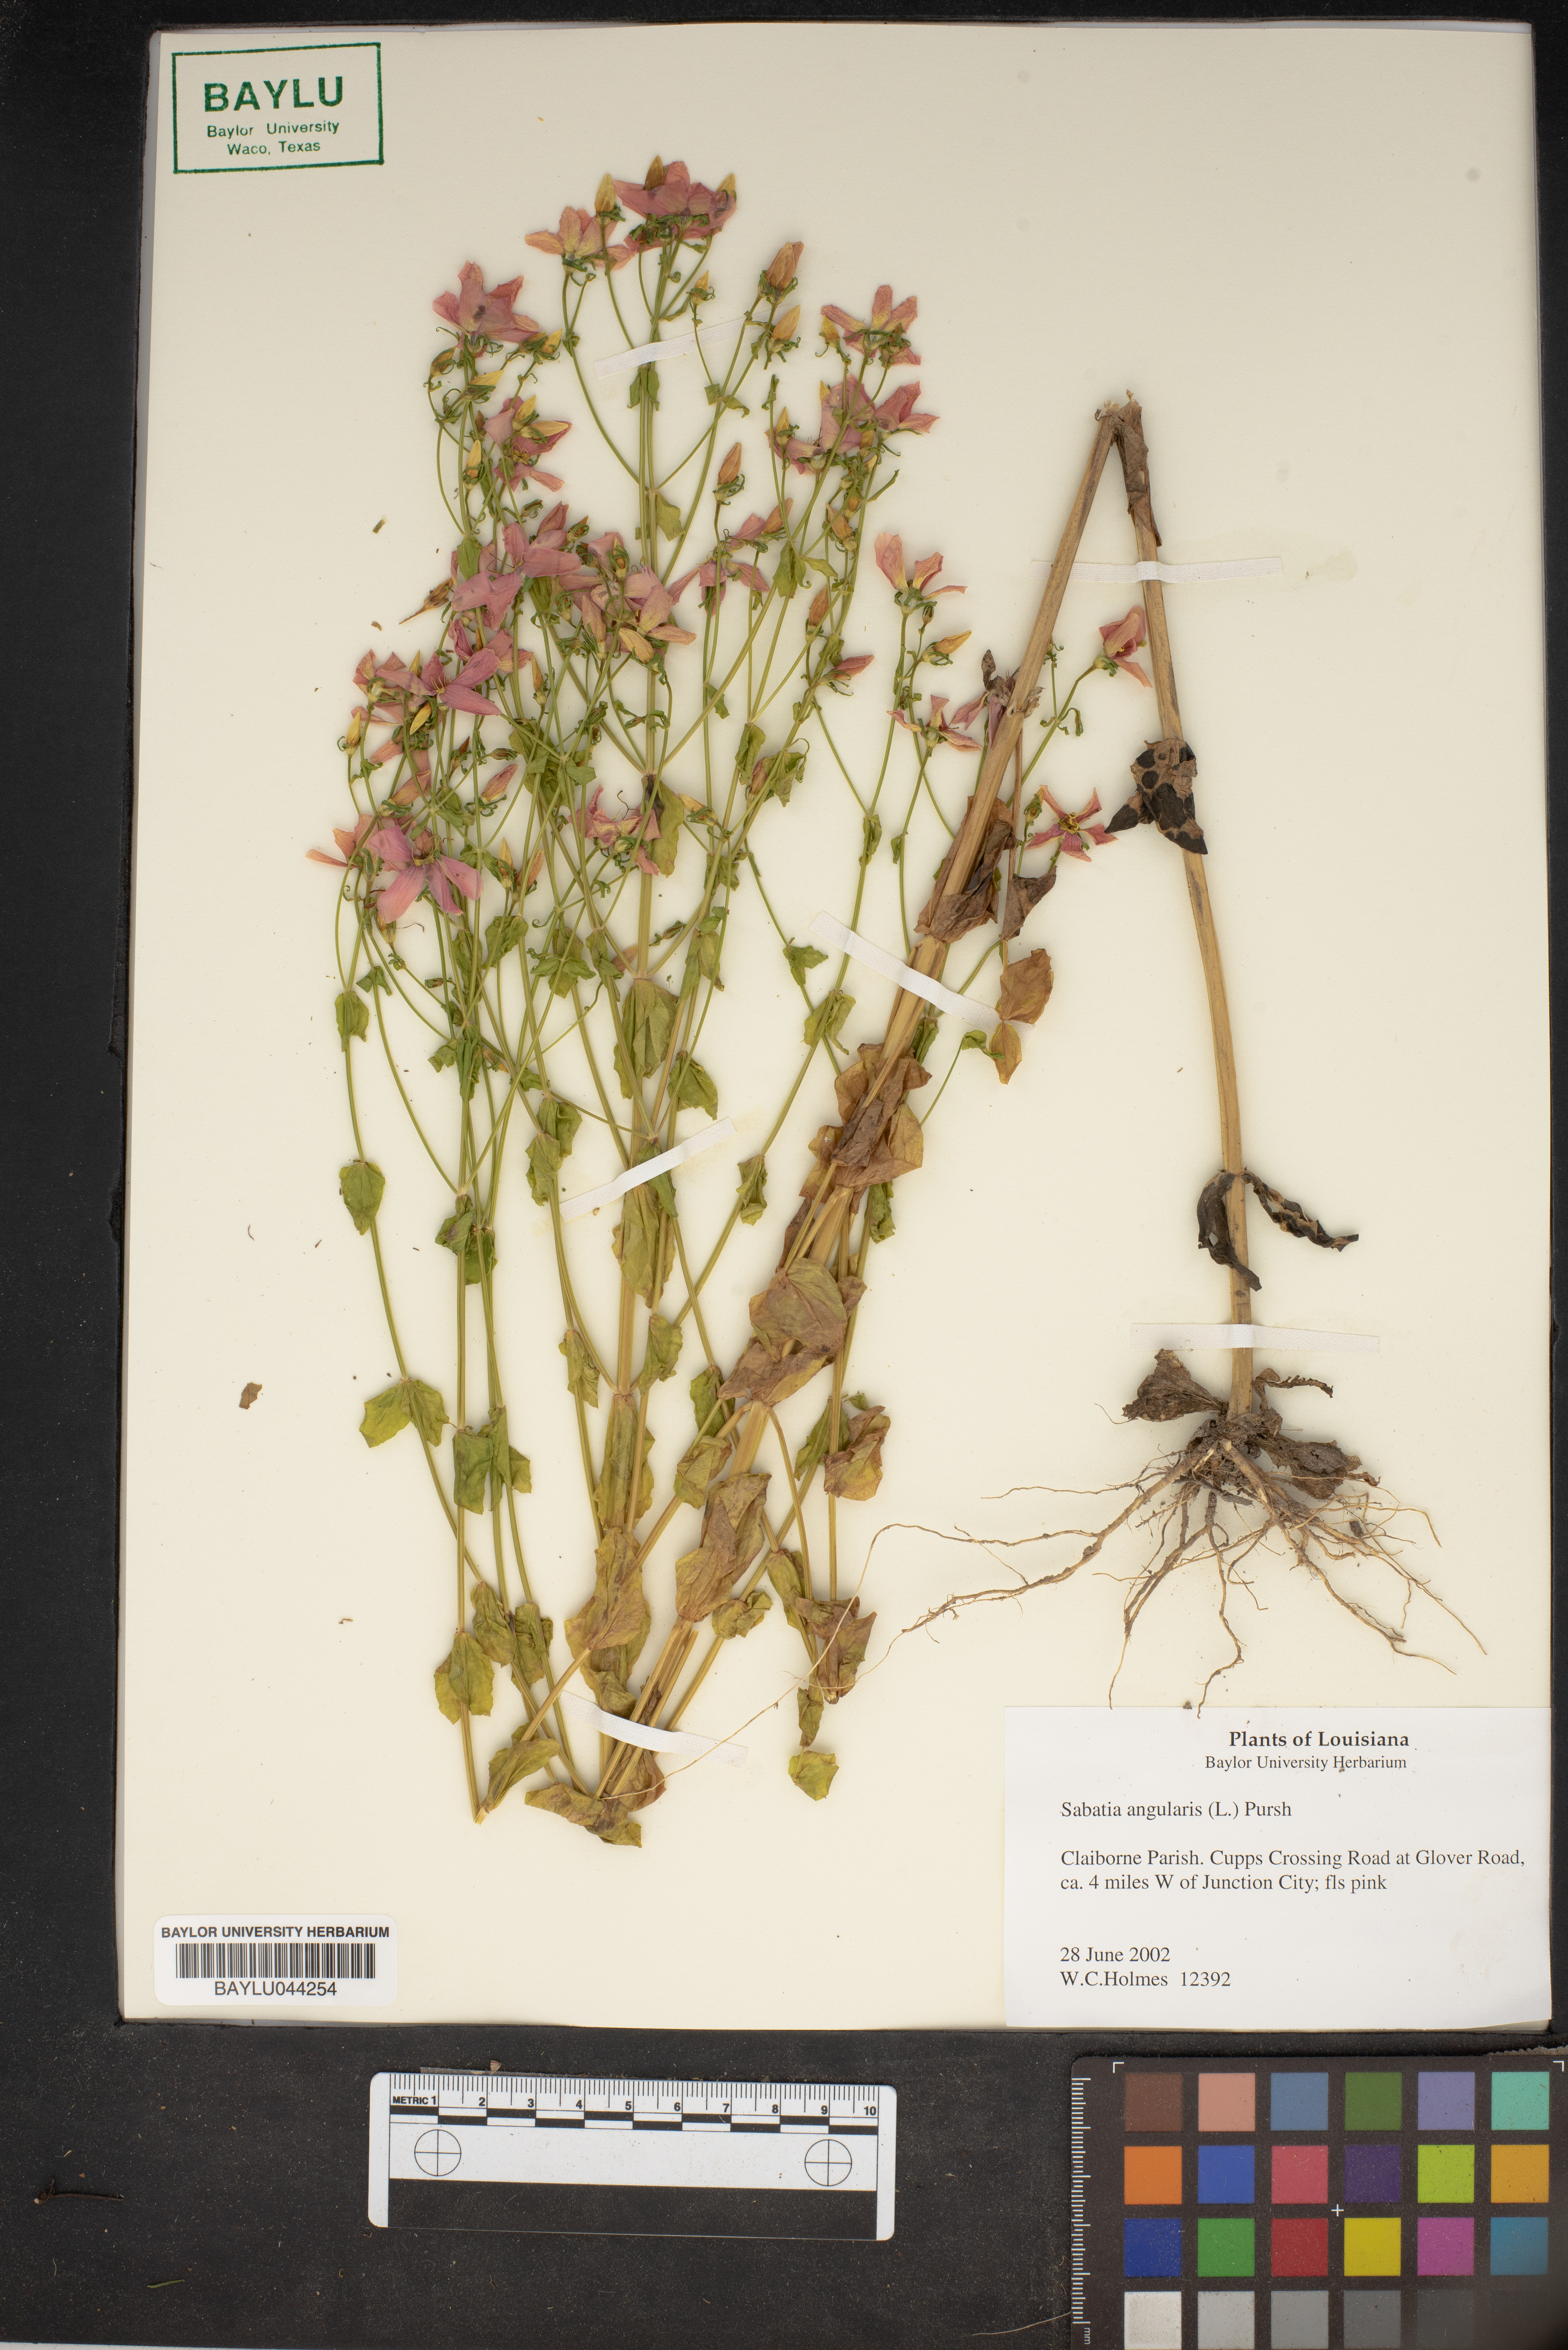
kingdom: Plantae
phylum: Tracheophyta
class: Magnoliopsida
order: Gentianales
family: Gentianaceae
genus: Sabatia
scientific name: Sabatia angularis
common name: Rose-pink
